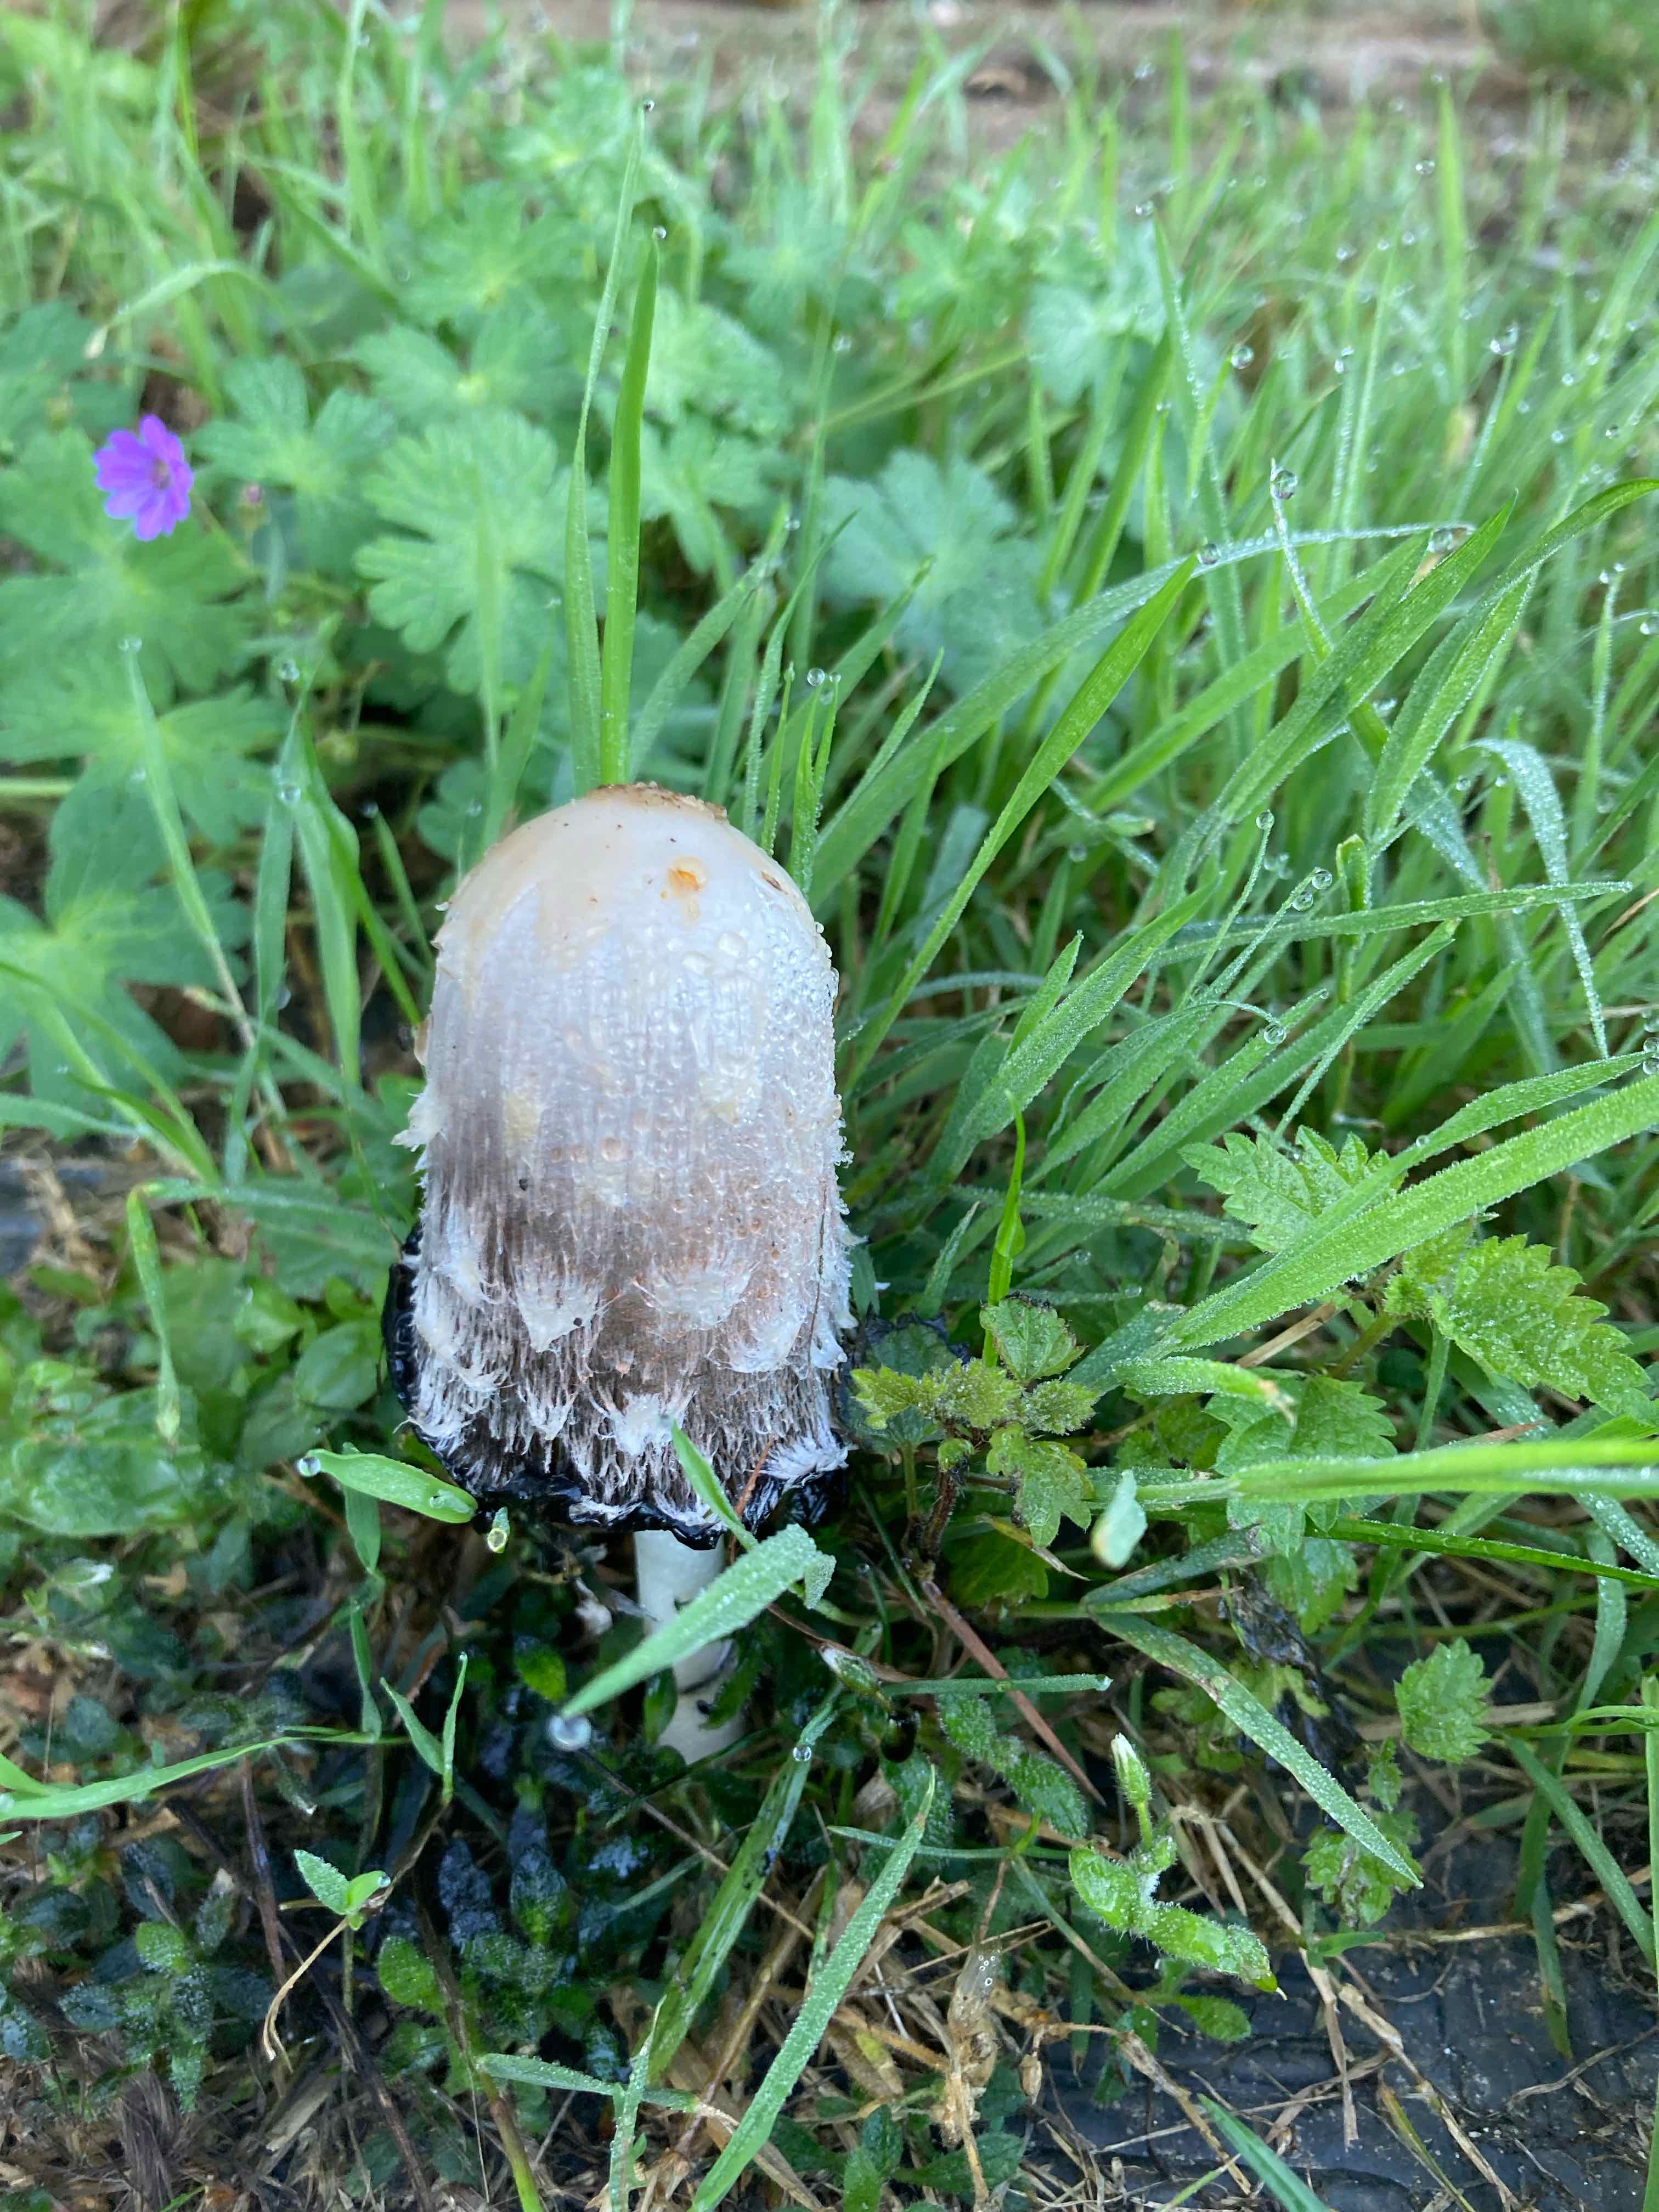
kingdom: Fungi
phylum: Basidiomycota
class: Agaricomycetes
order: Agaricales
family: Agaricaceae
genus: Coprinus
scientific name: Coprinus comatus
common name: stor parykhat
